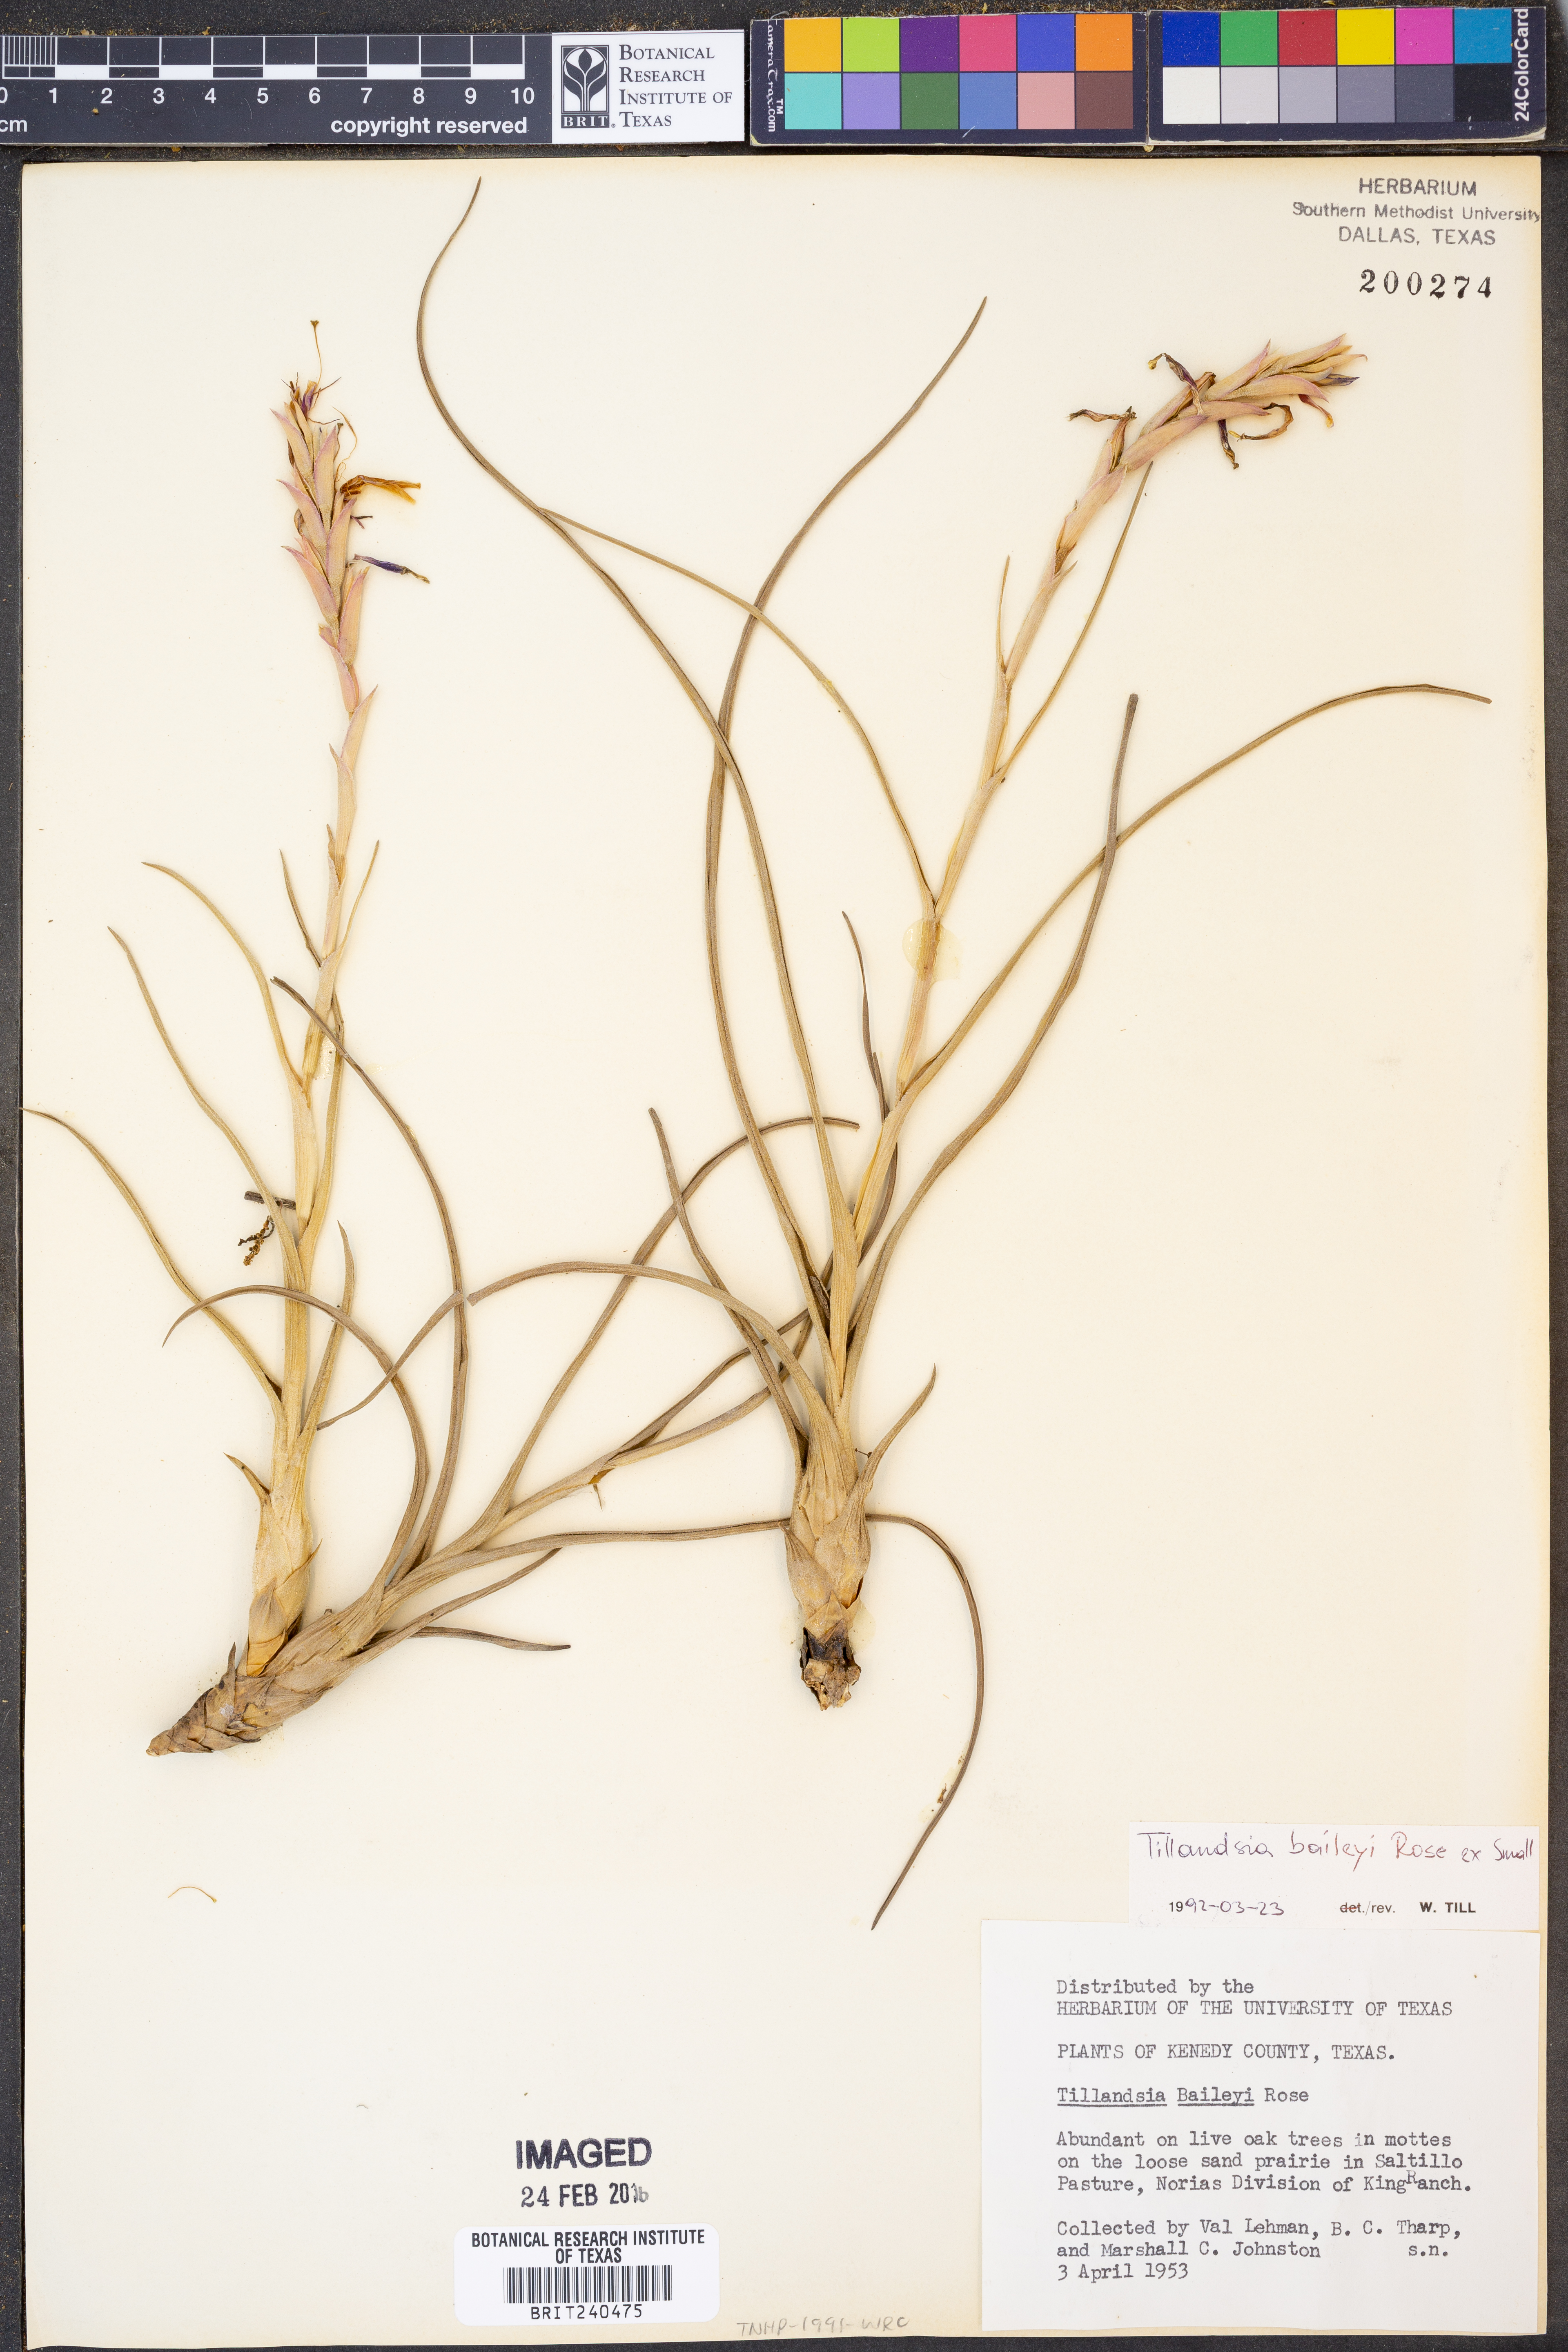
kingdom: Plantae
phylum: Tracheophyta
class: Liliopsida
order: Poales
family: Bromeliaceae
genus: Tillandsia
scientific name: Tillandsia baileyi
